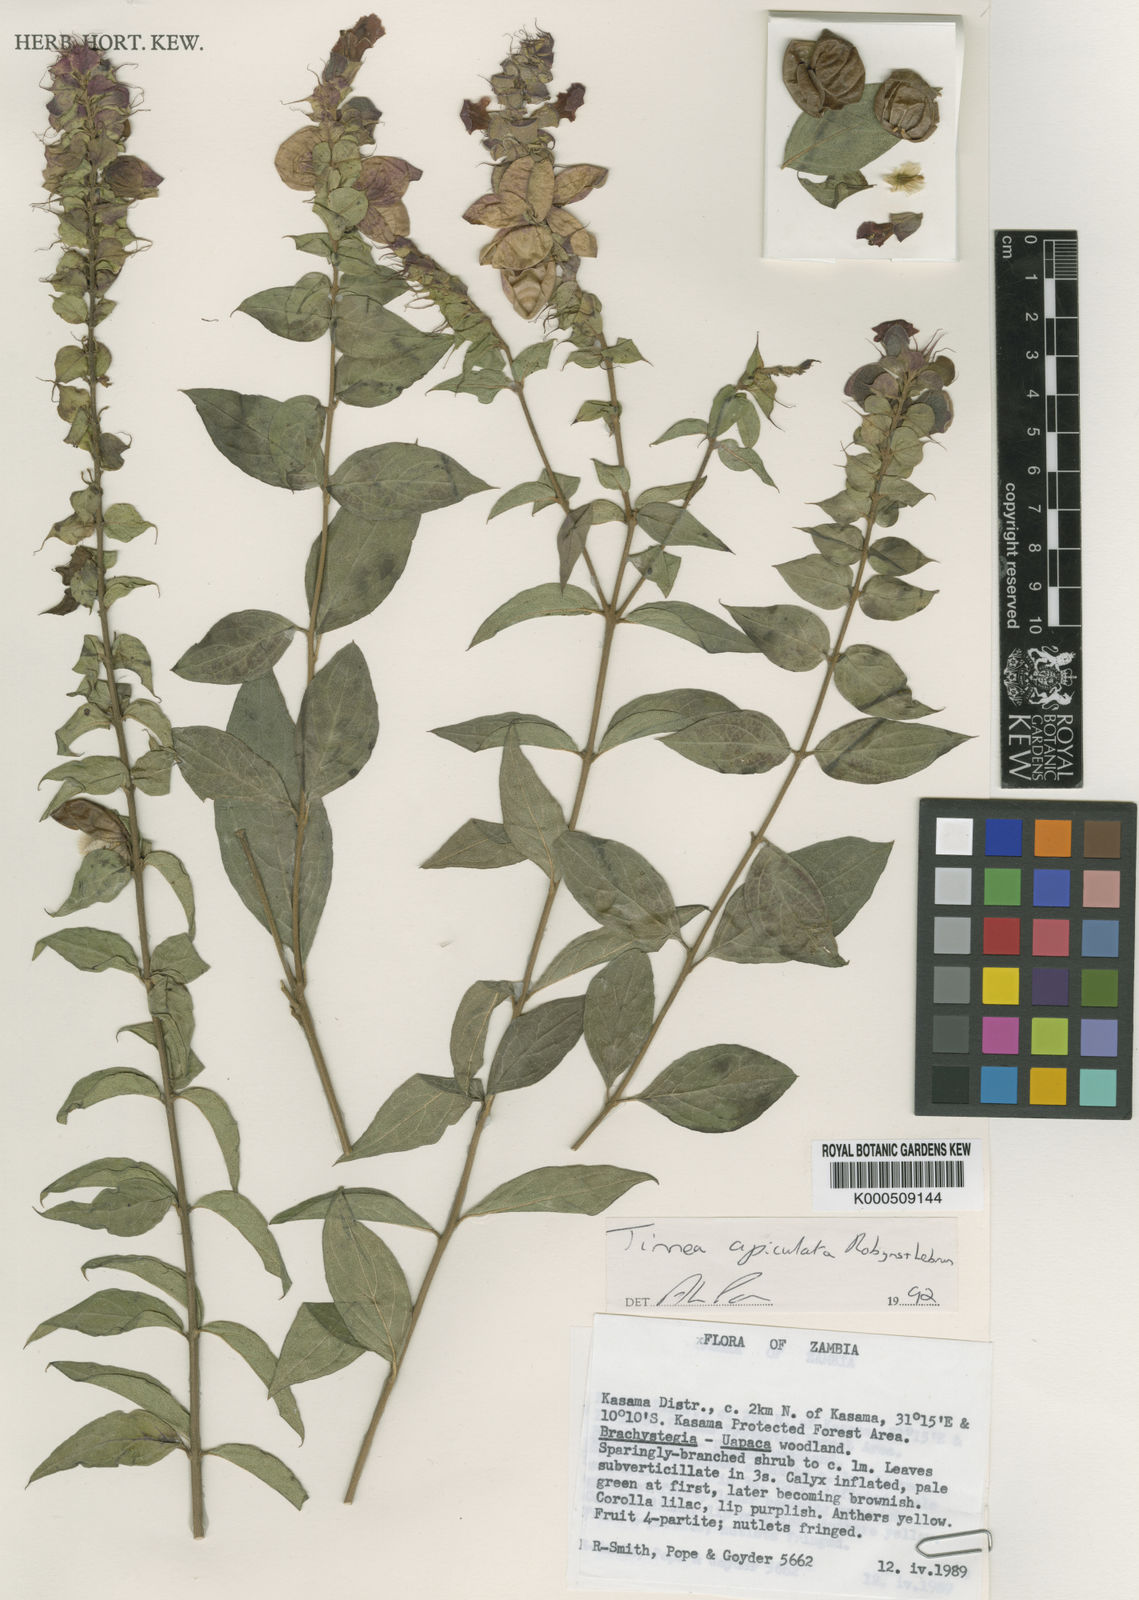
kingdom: Plantae
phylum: Tracheophyta
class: Magnoliopsida
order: Lamiales
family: Lamiaceae
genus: Tinnea
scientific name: Tinnea apiculata
